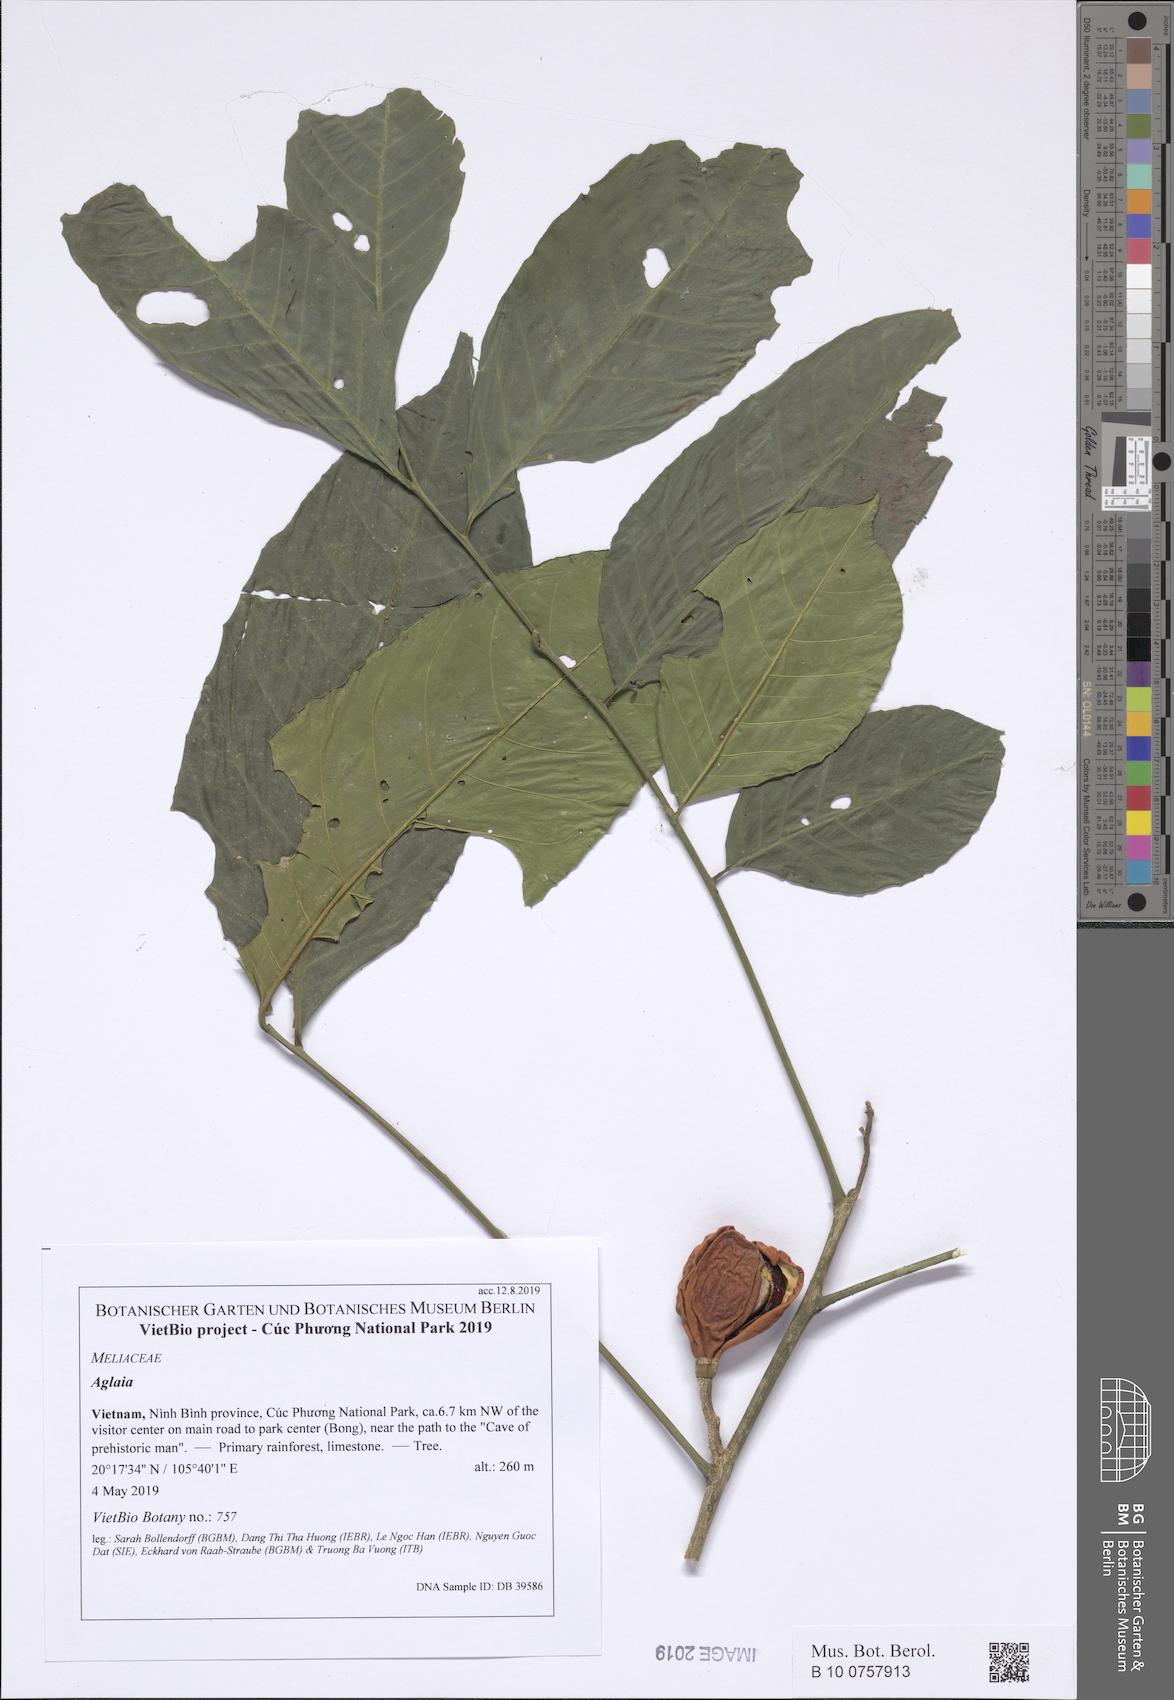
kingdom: Plantae
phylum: Tracheophyta
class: Magnoliopsida
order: Sapindales
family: Meliaceae
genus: Aglaia
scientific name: Aglaia
